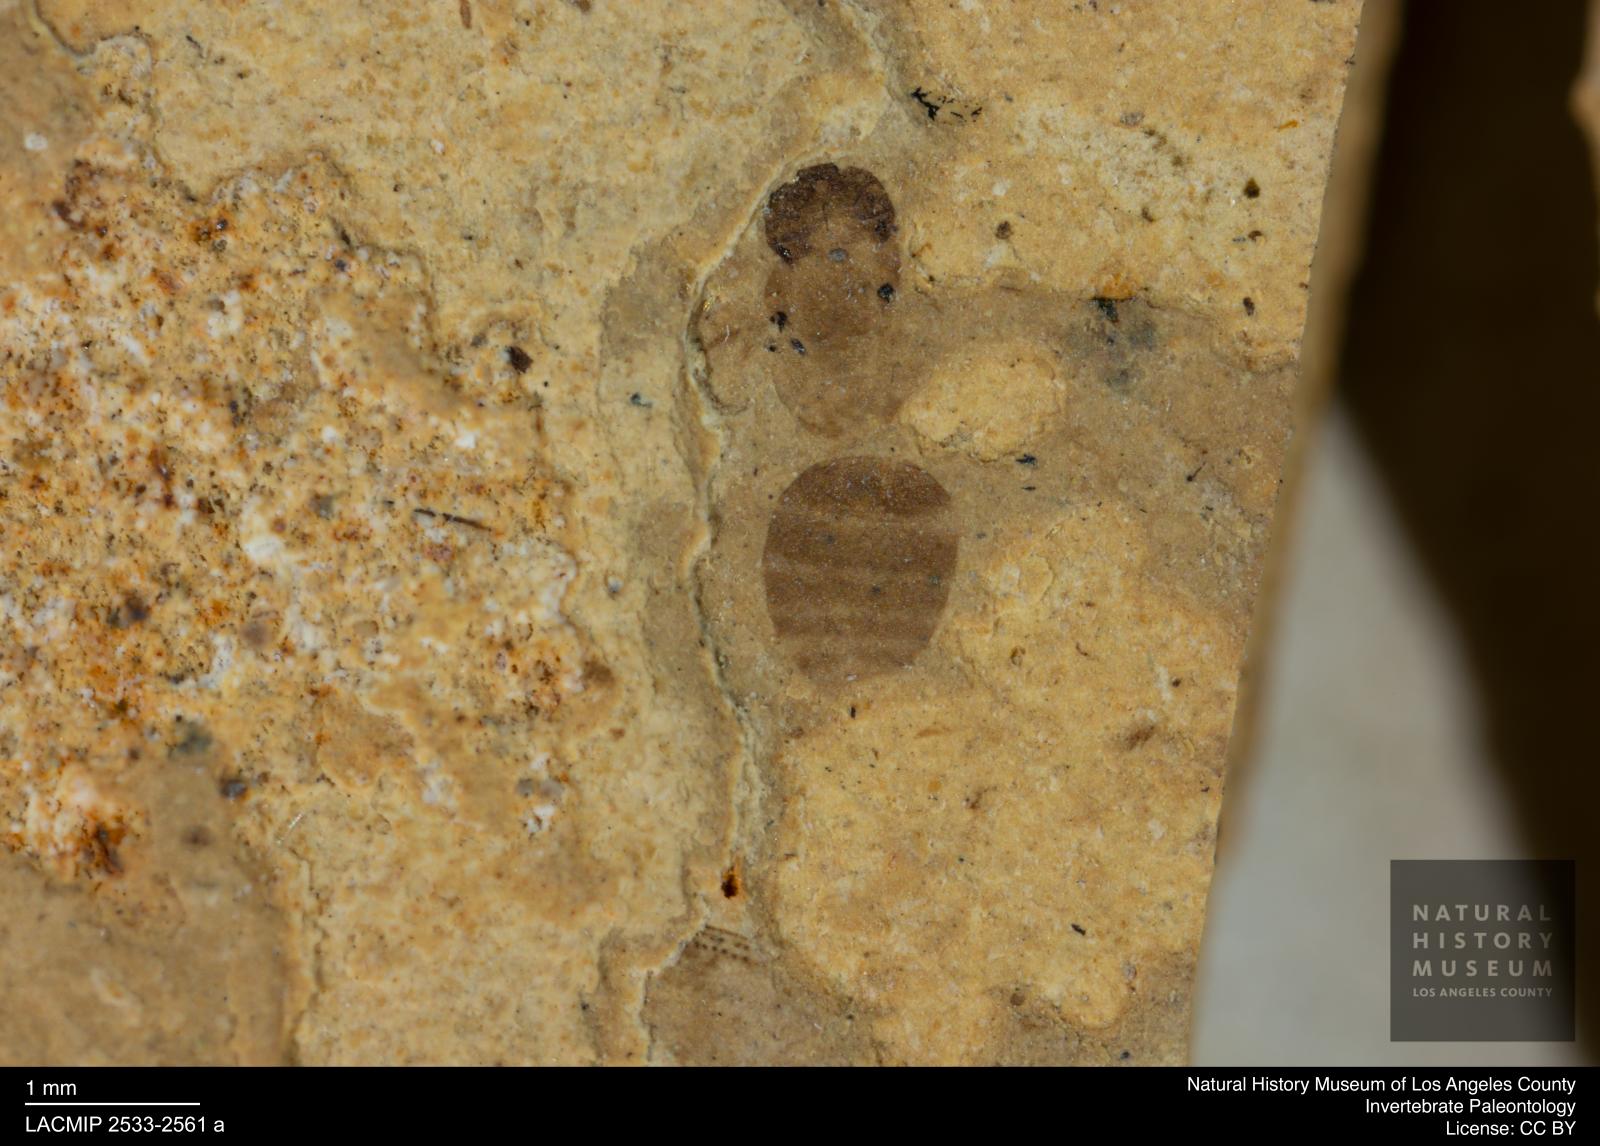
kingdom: Animalia
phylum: Arthropoda
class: Insecta
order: Hymenoptera
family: Formicidae
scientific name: Formicidae
